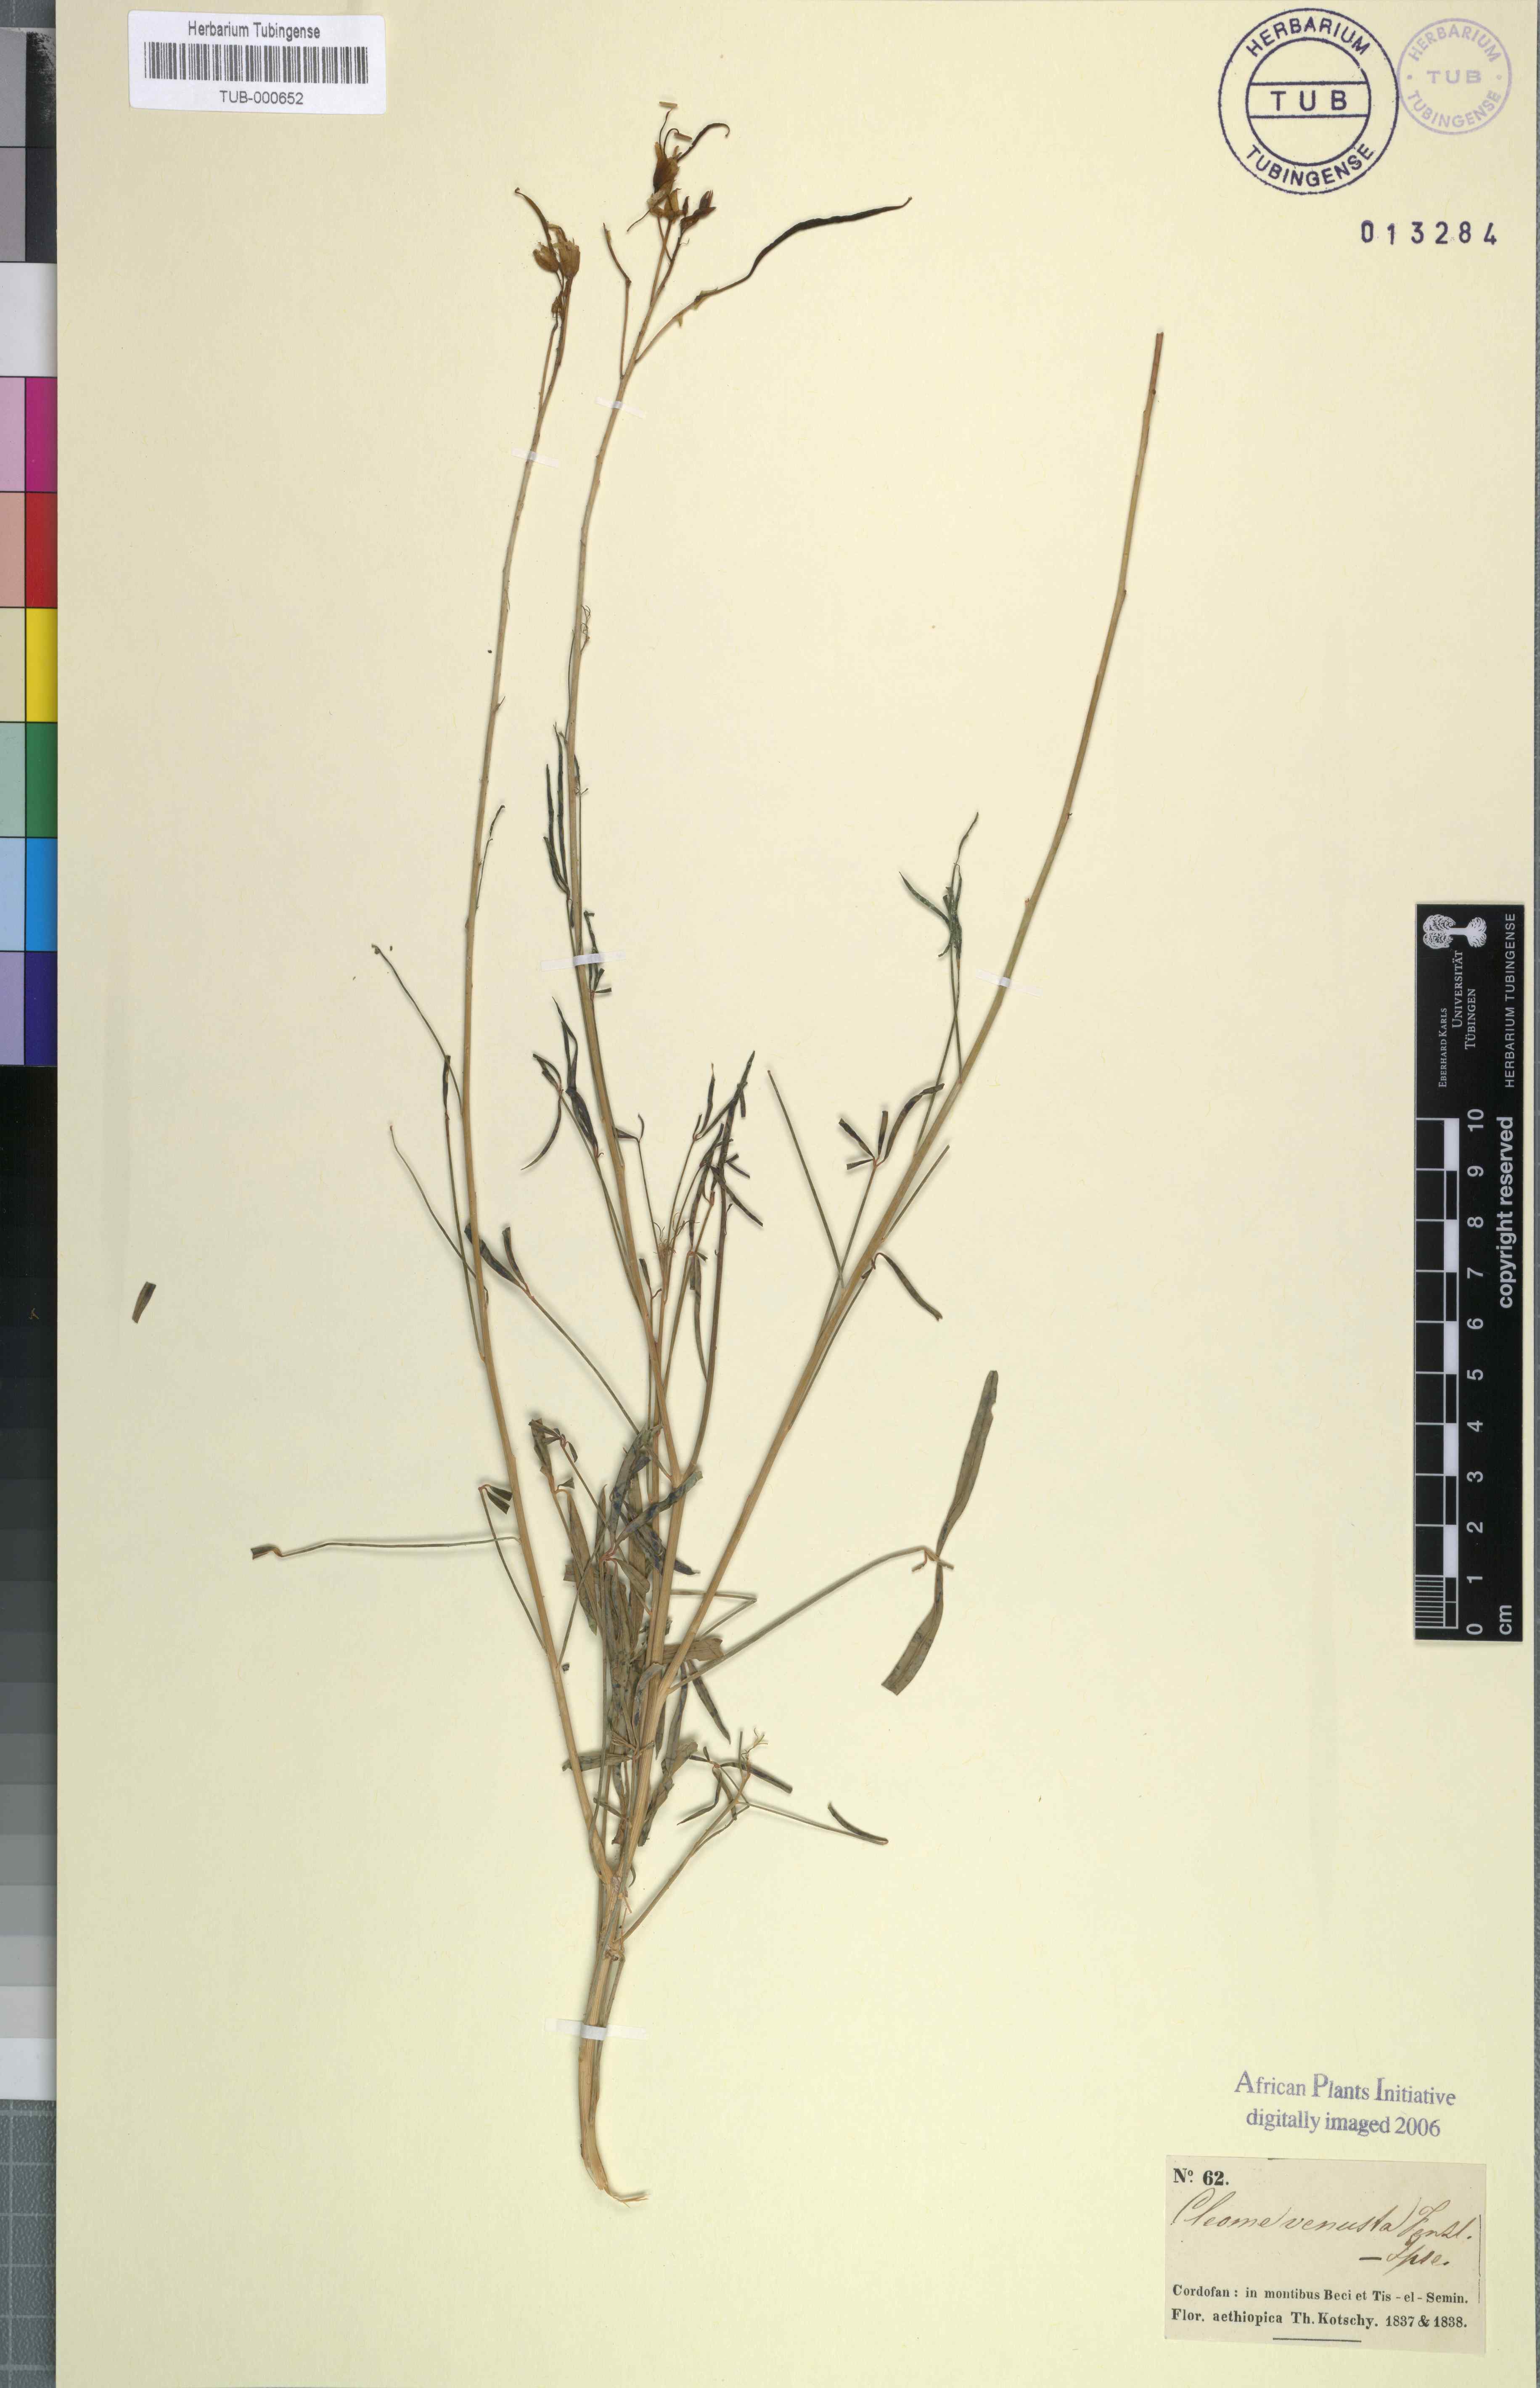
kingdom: Plantae
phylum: Tracheophyta
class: Magnoliopsida
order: Brassicales
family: Cleomaceae
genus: Coalisina
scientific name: Coalisina paradoxa
